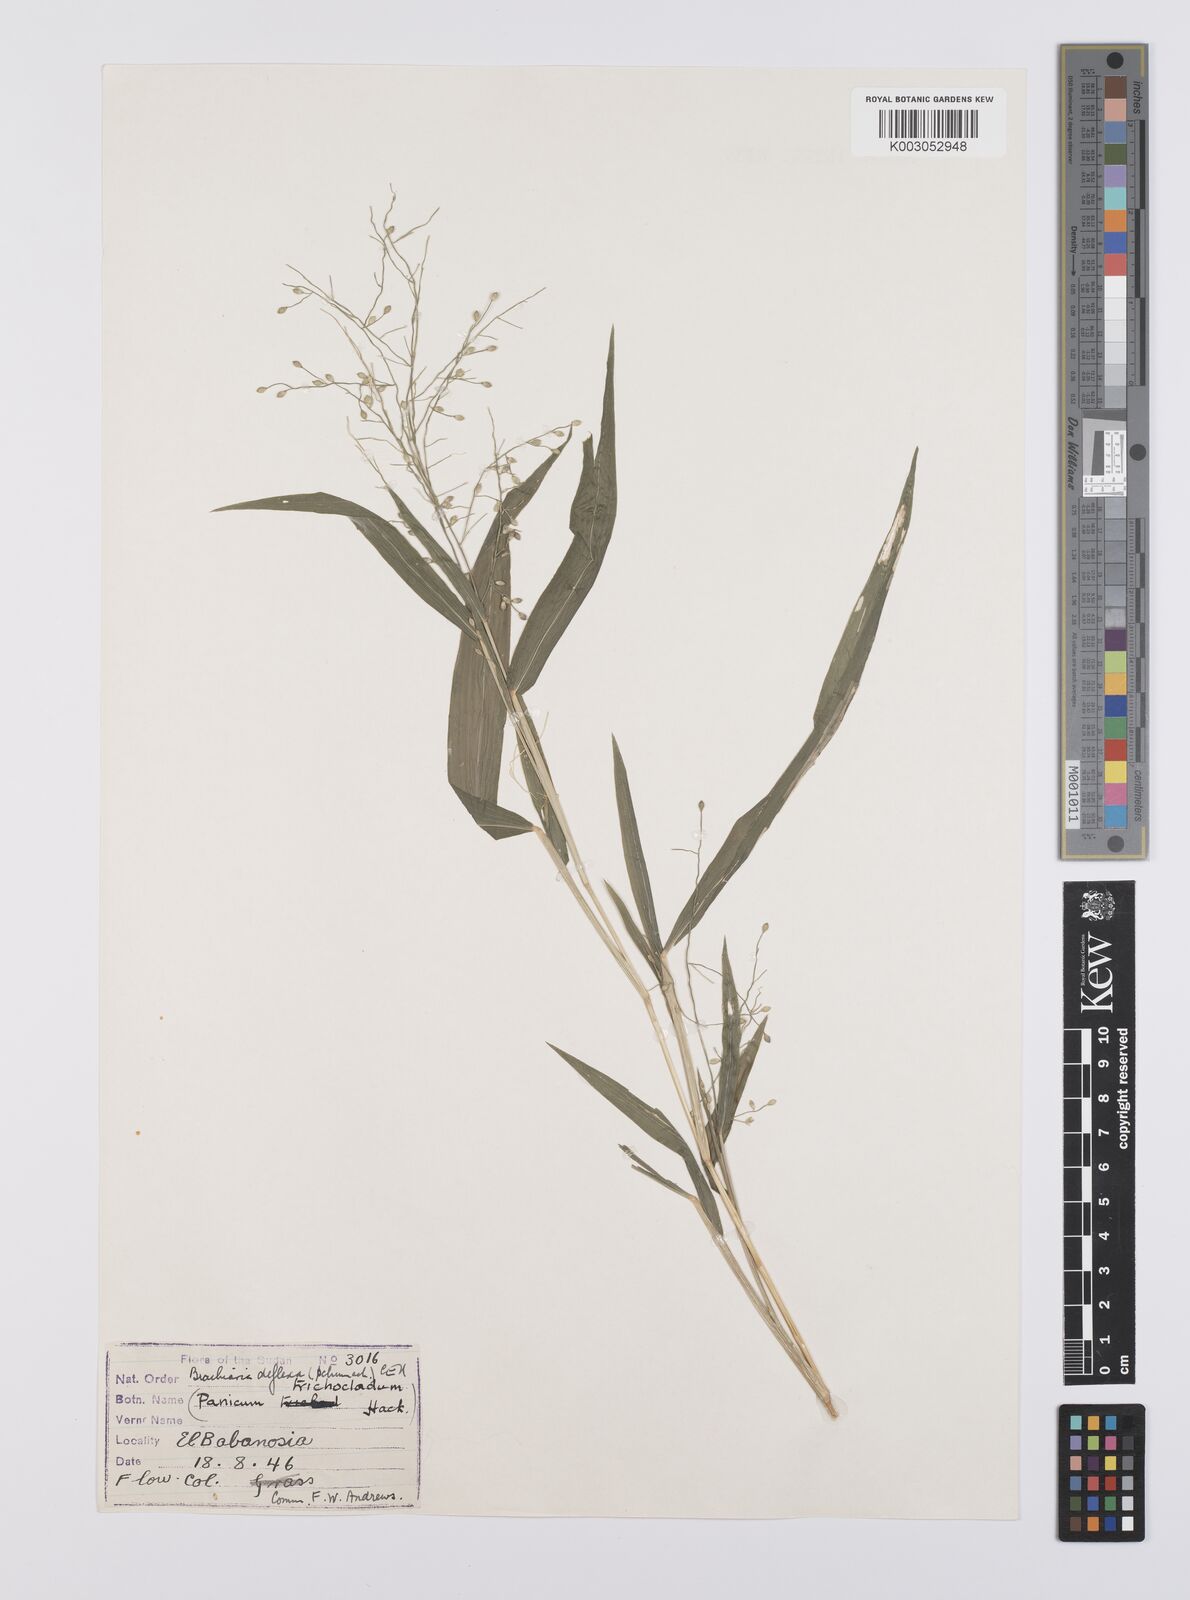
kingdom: Plantae
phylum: Tracheophyta
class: Liliopsida
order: Poales
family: Poaceae
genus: Urochloa
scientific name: Urochloa deflexa
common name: Guinea millet
